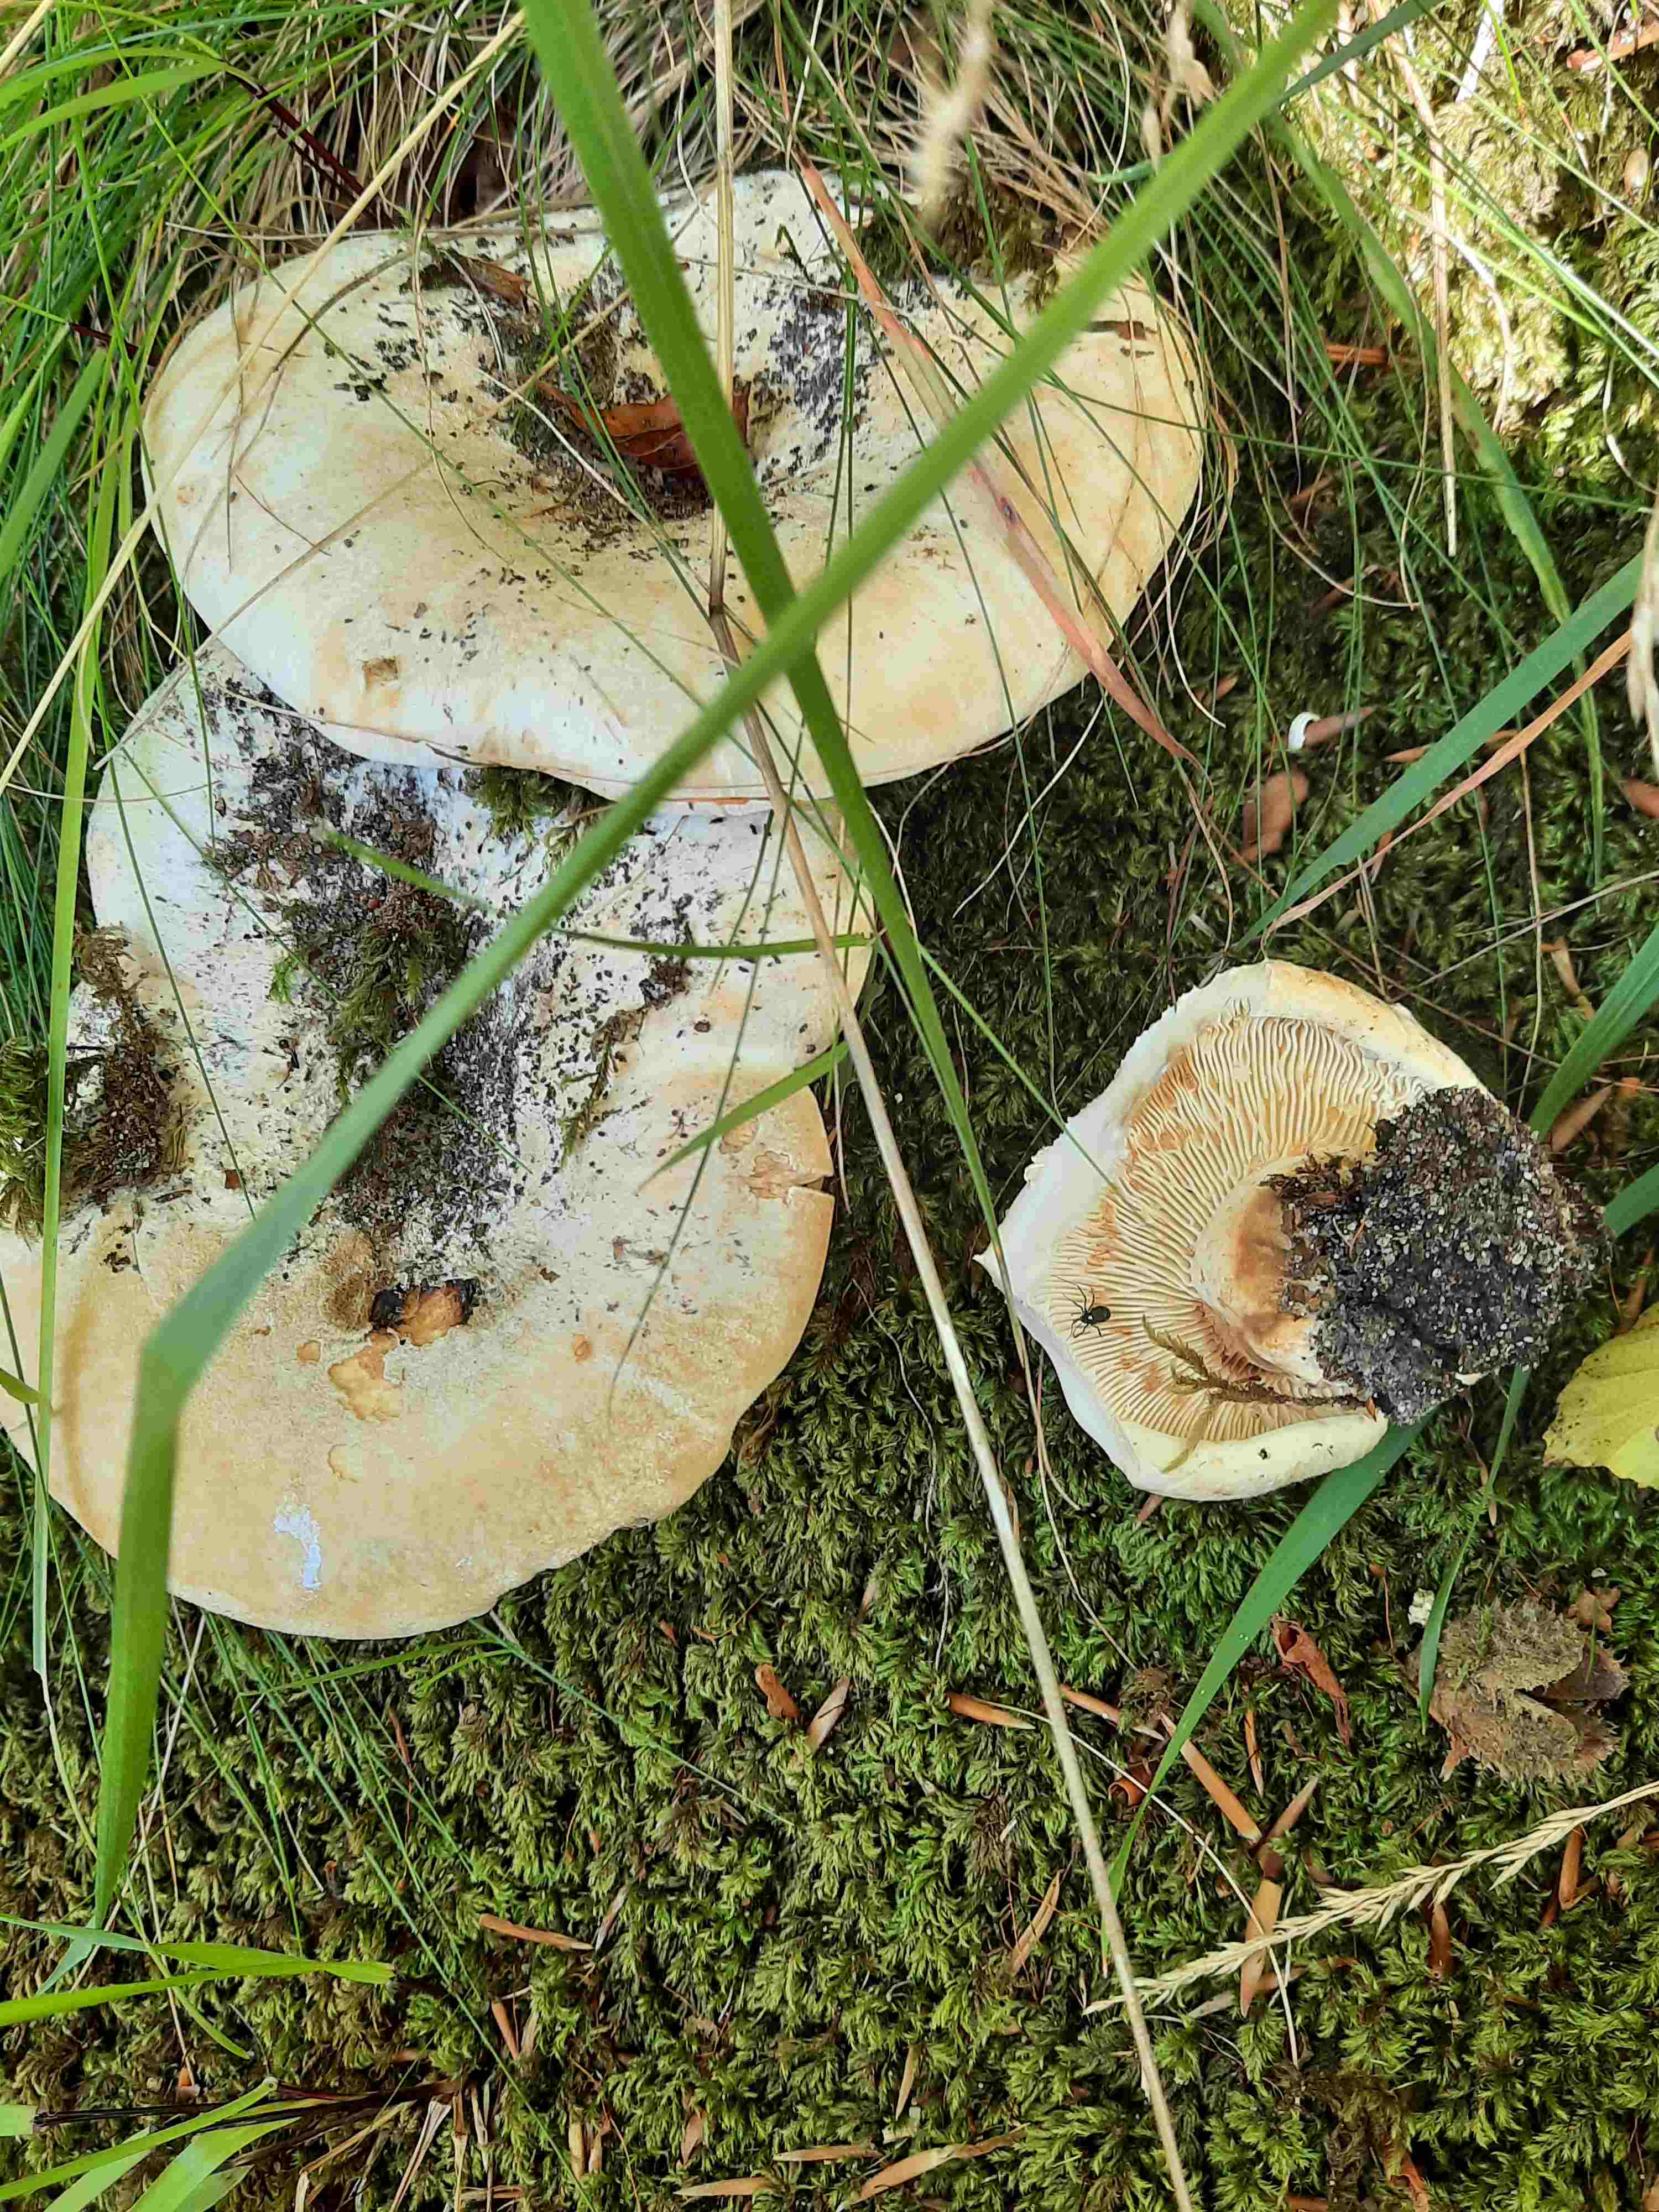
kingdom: Fungi
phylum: Basidiomycota
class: Agaricomycetes
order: Russulales
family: Russulaceae
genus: Lactifluus
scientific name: Lactifluus vellereus
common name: hvidfiltet mælkehat
